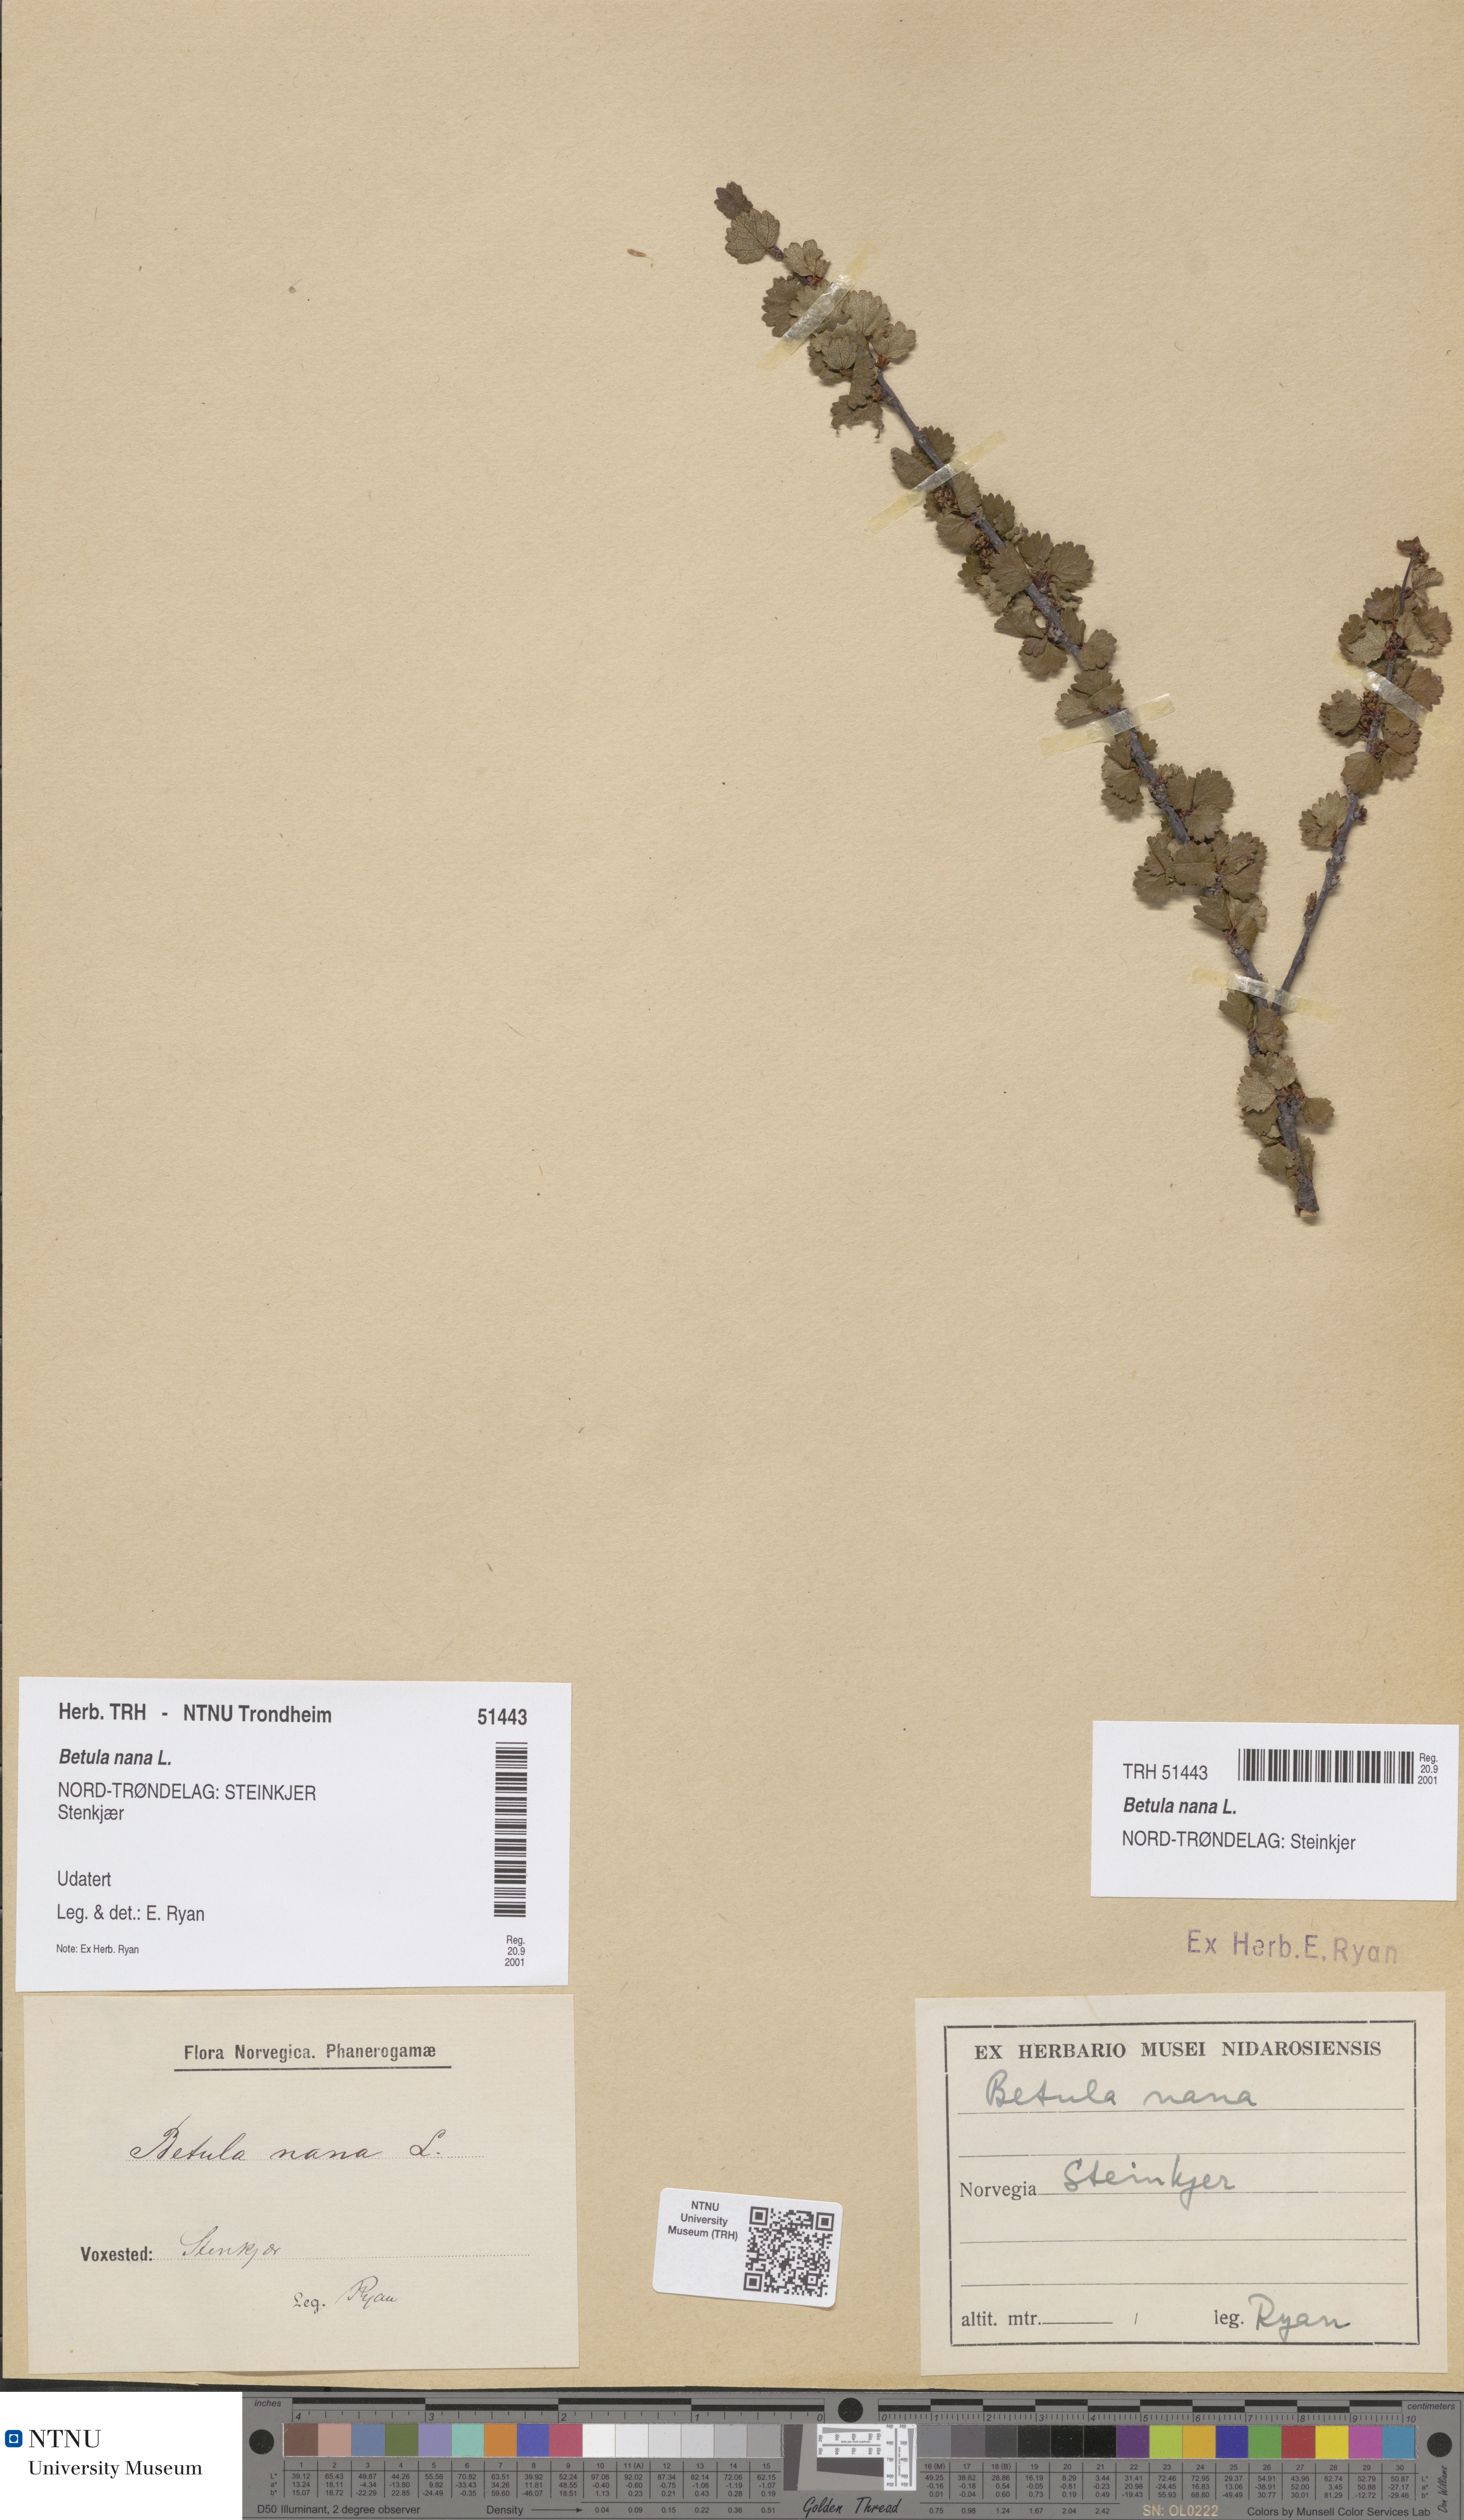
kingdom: Plantae
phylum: Tracheophyta
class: Magnoliopsida
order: Fagales
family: Betulaceae
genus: Betula
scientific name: Betula nana
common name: Arctic dwarf birch
